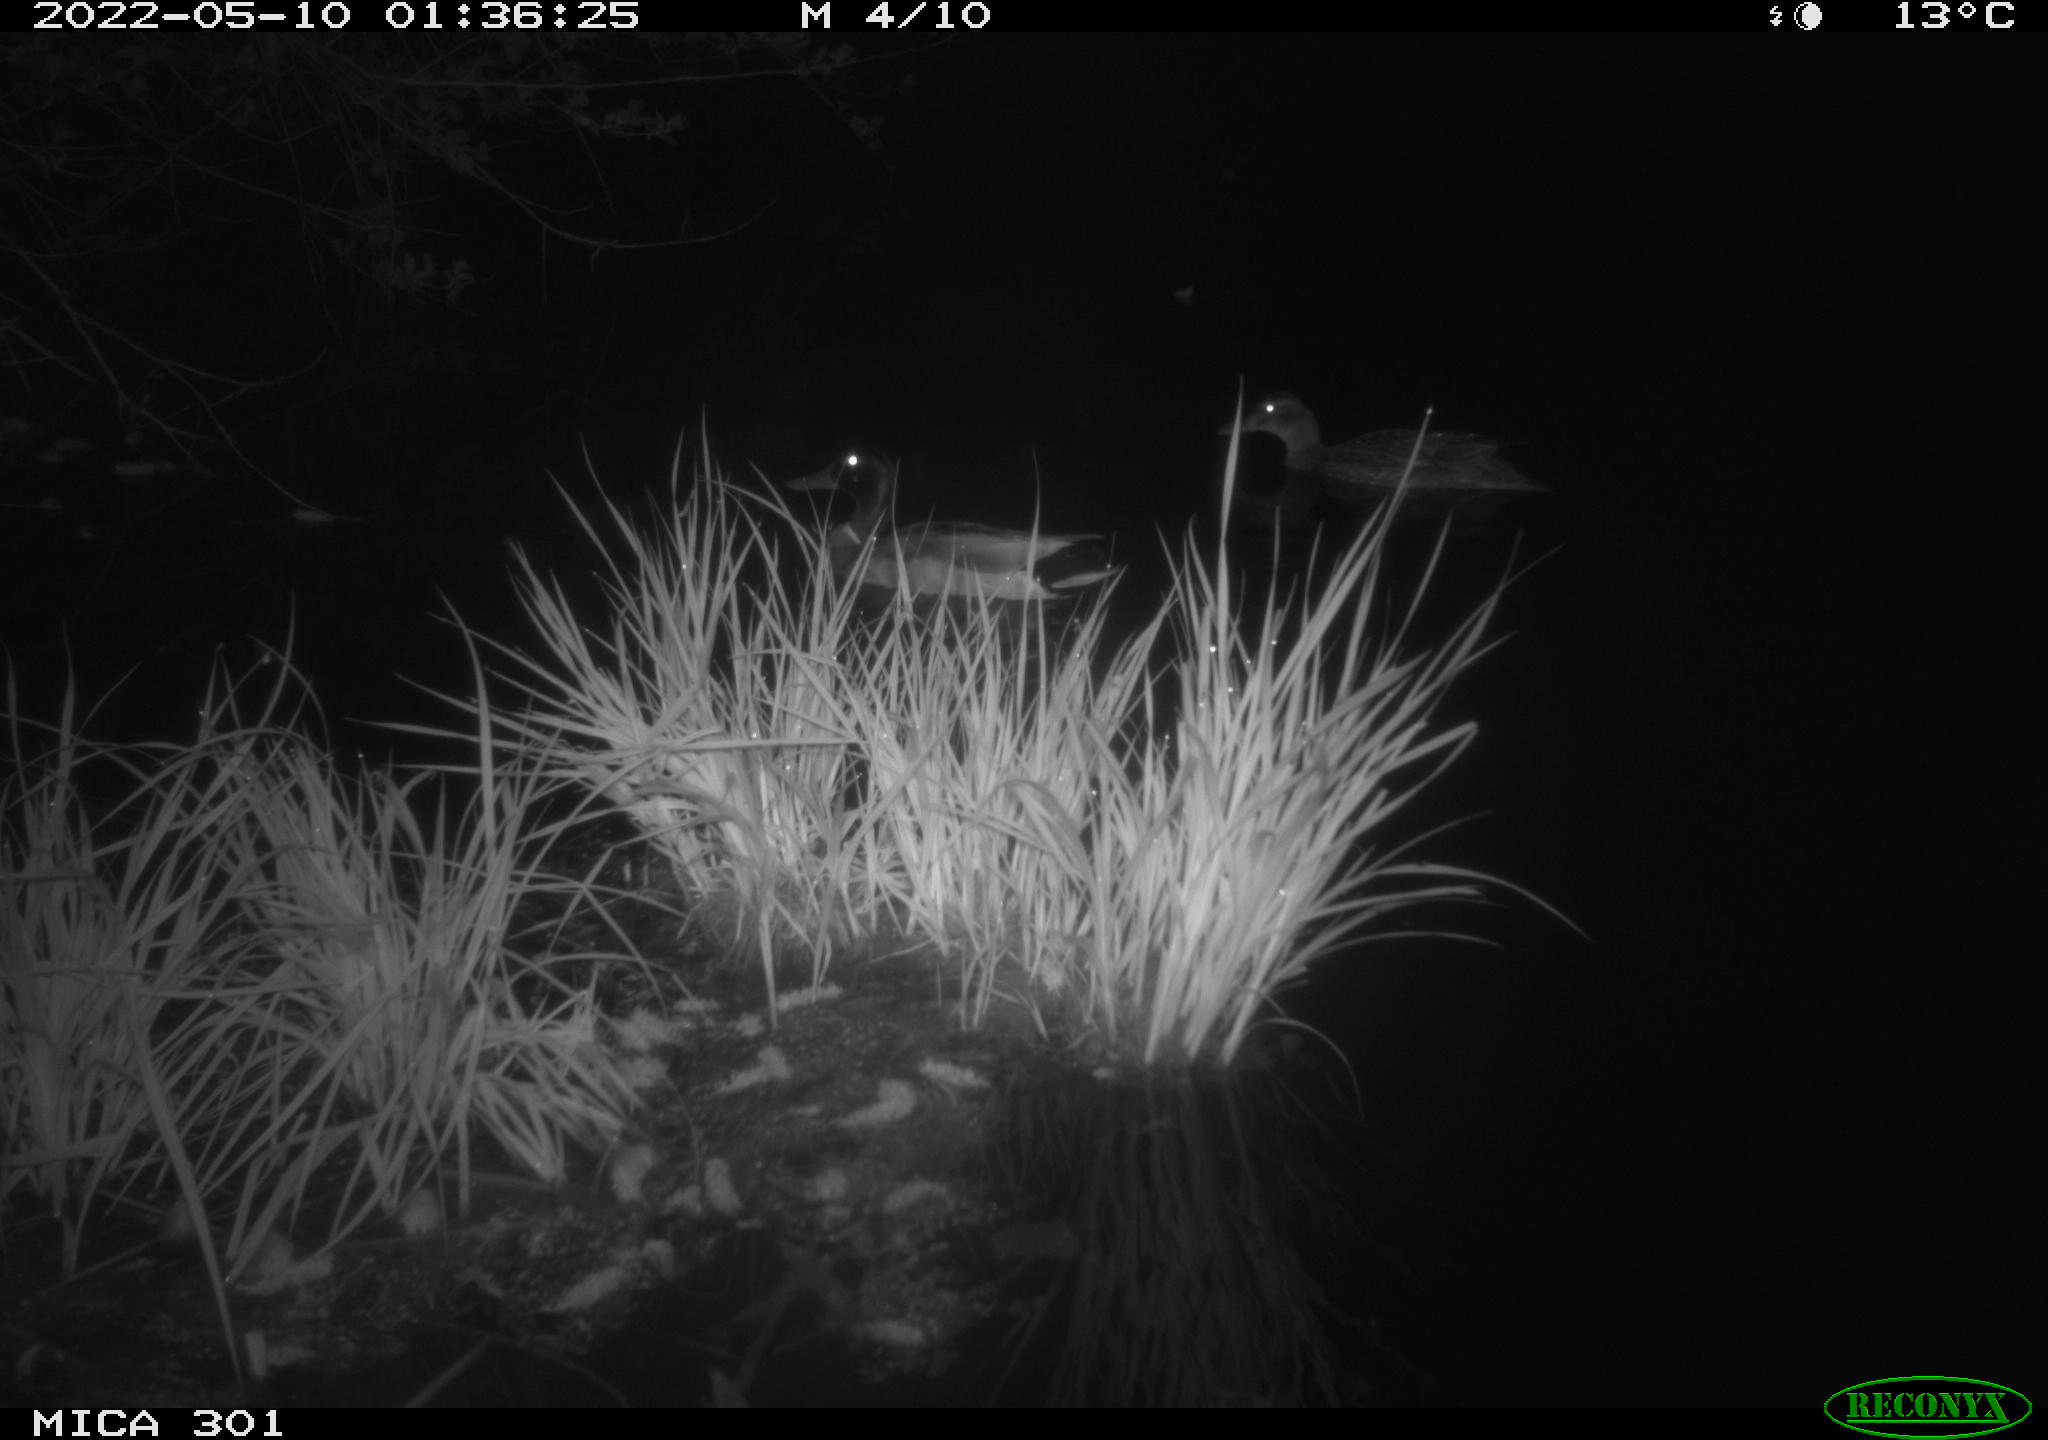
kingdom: Animalia
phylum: Chordata
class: Aves
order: Anseriformes
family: Anatidae
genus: Anas
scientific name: Anas platyrhynchos
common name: Mallard
